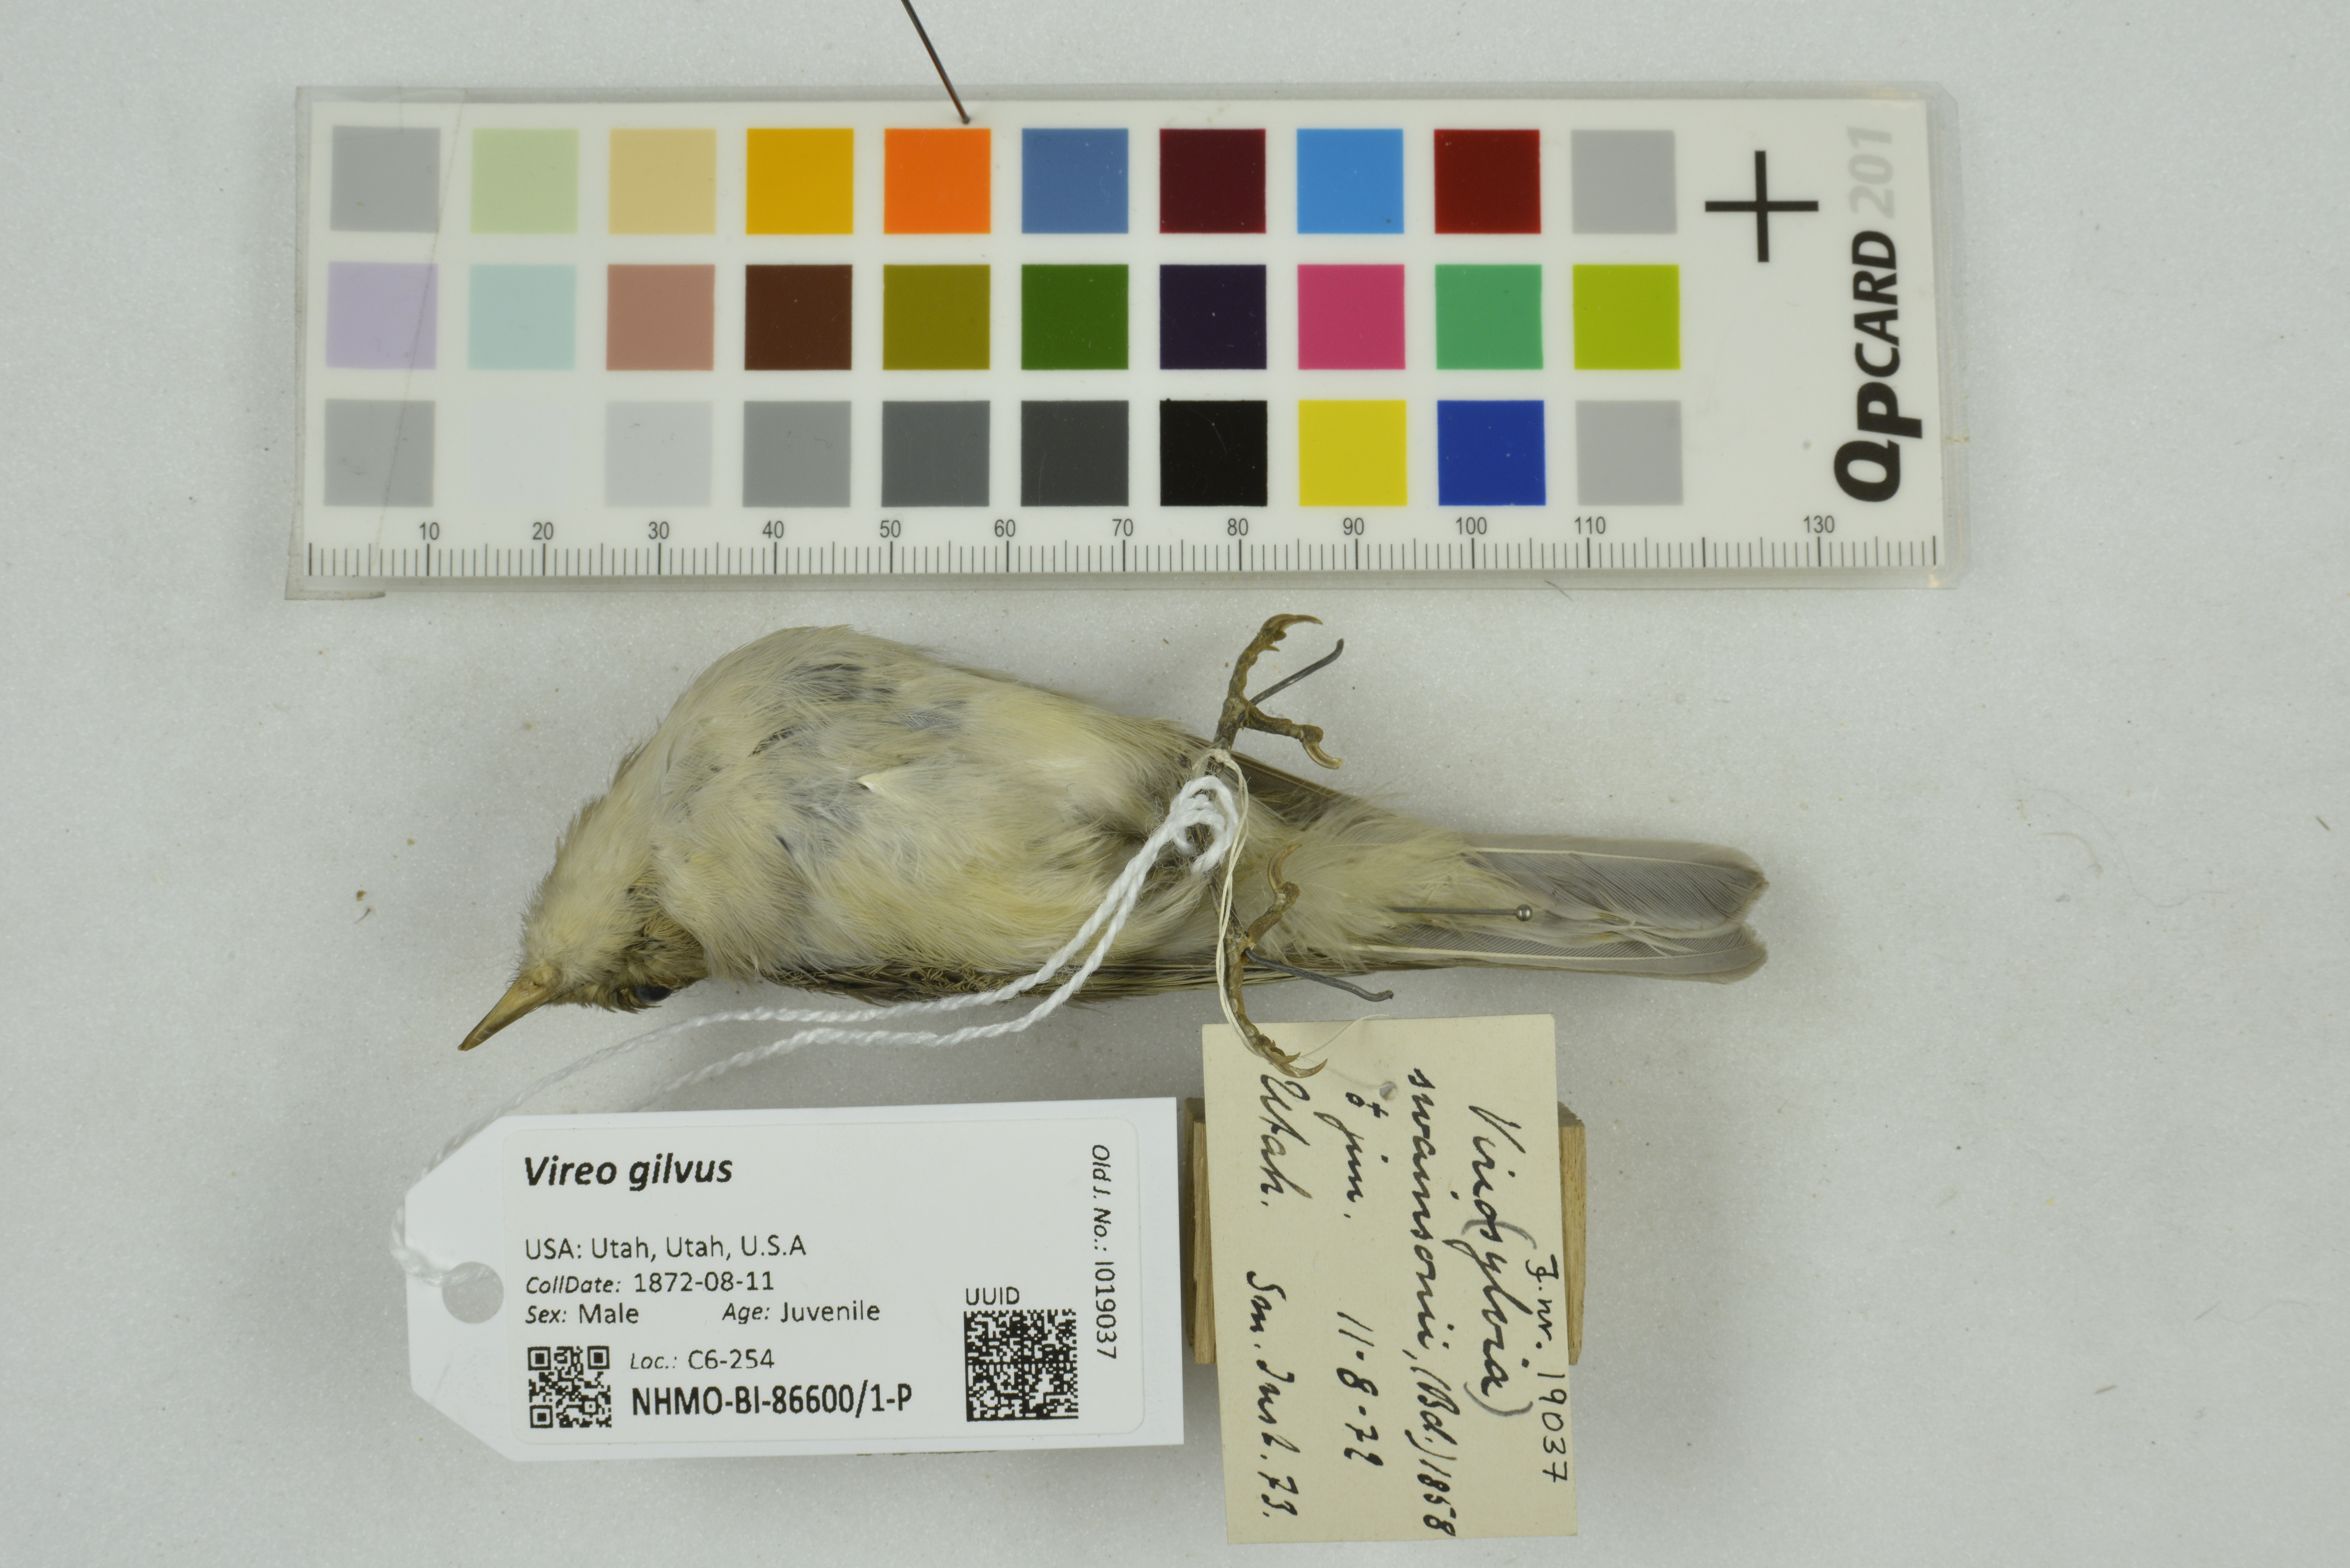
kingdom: Animalia
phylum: Chordata
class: Aves
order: Passeriformes
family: Vireonidae
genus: Vireo
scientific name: Vireo gilvus
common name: Warbling vireo
